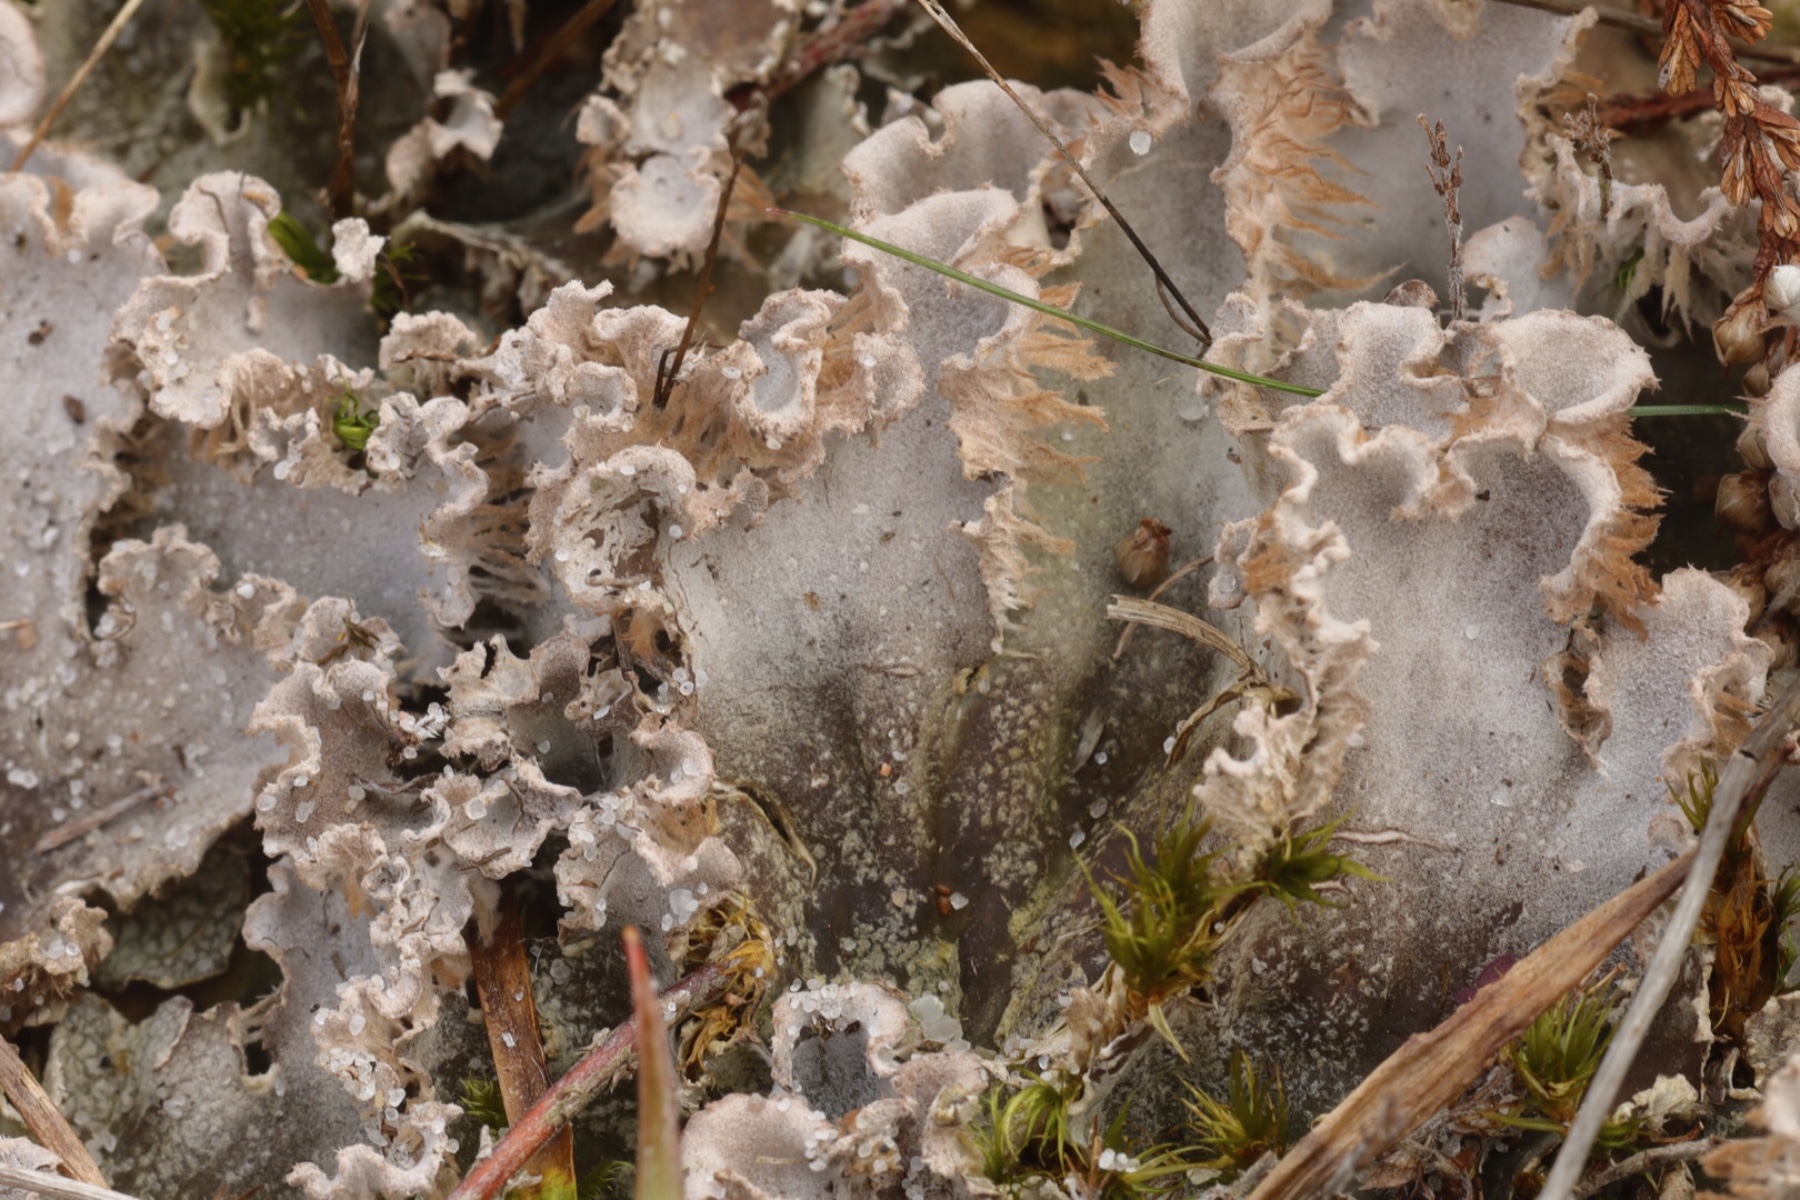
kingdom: Fungi
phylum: Ascomycota
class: Lecanoromycetes
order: Peltigerales
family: Peltigeraceae
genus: Peltigera
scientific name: Peltigera canina
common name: hunde-skjoldlav
